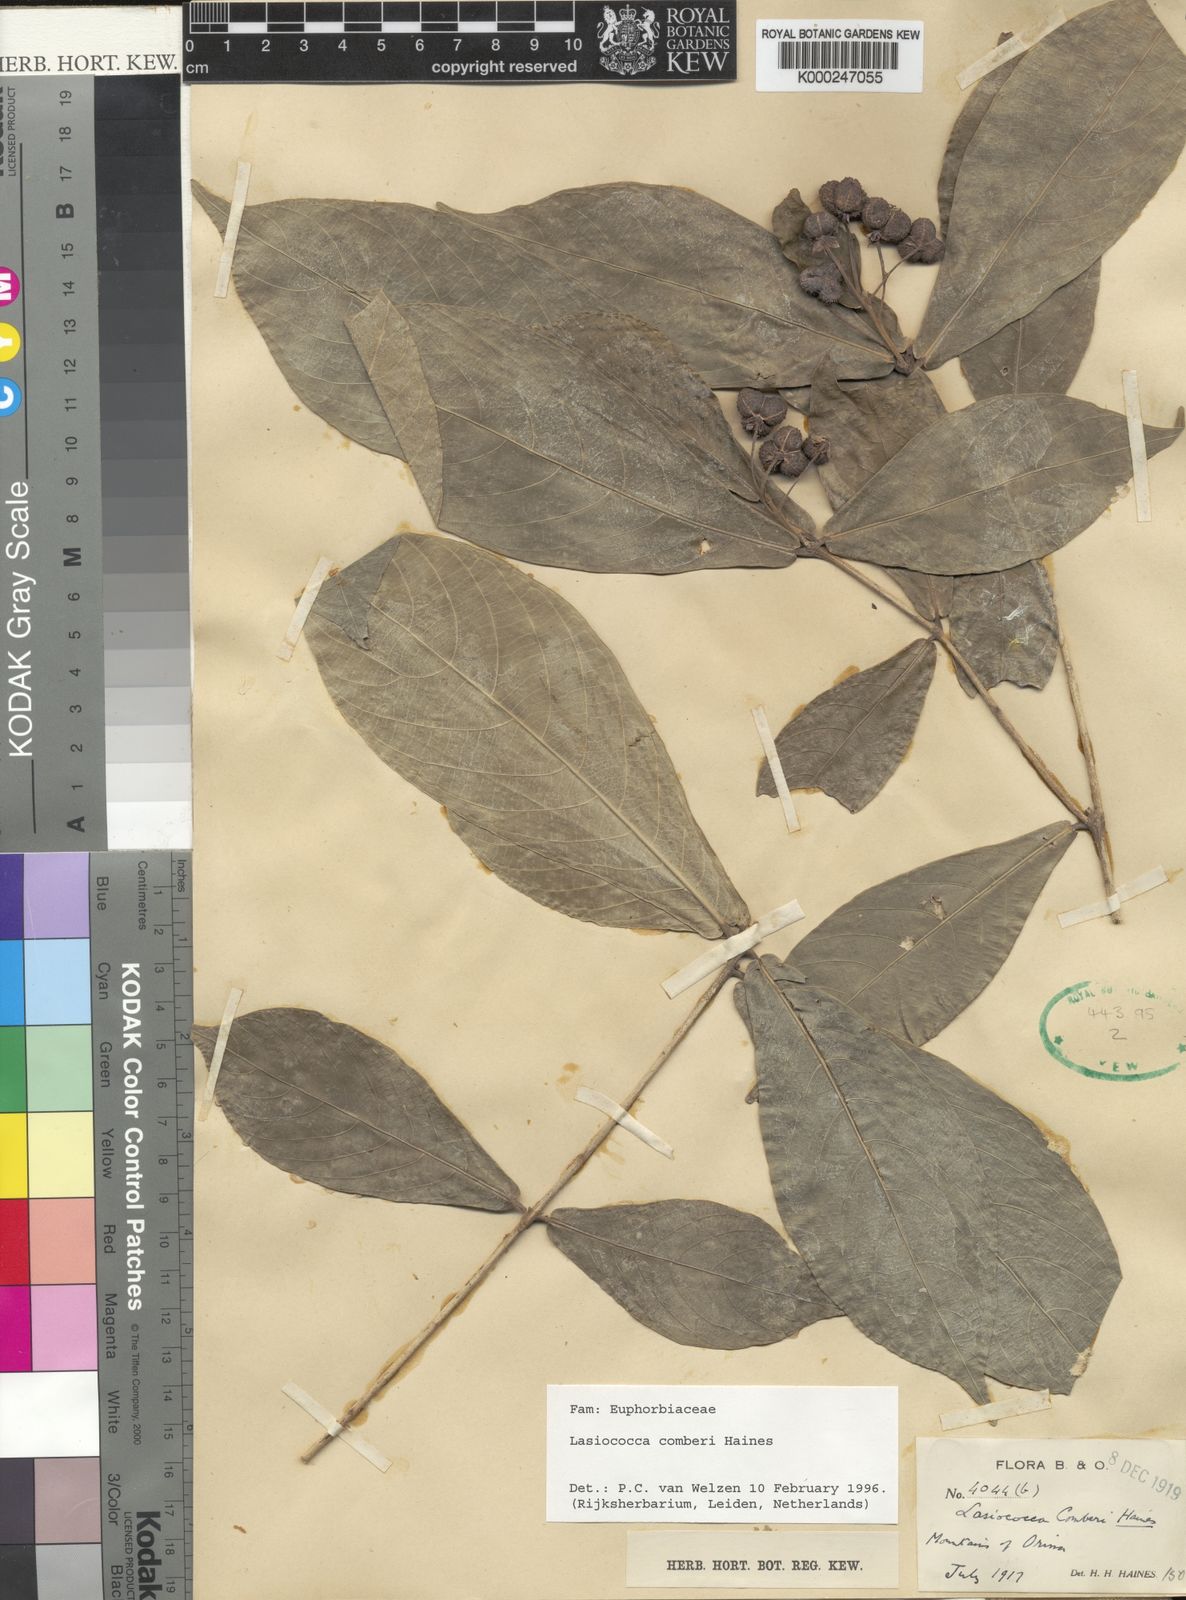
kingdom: Plantae
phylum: Tracheophyta
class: Magnoliopsida
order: Malpighiales
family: Euphorbiaceae
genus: Lasiococca
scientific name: Lasiococca comberi
